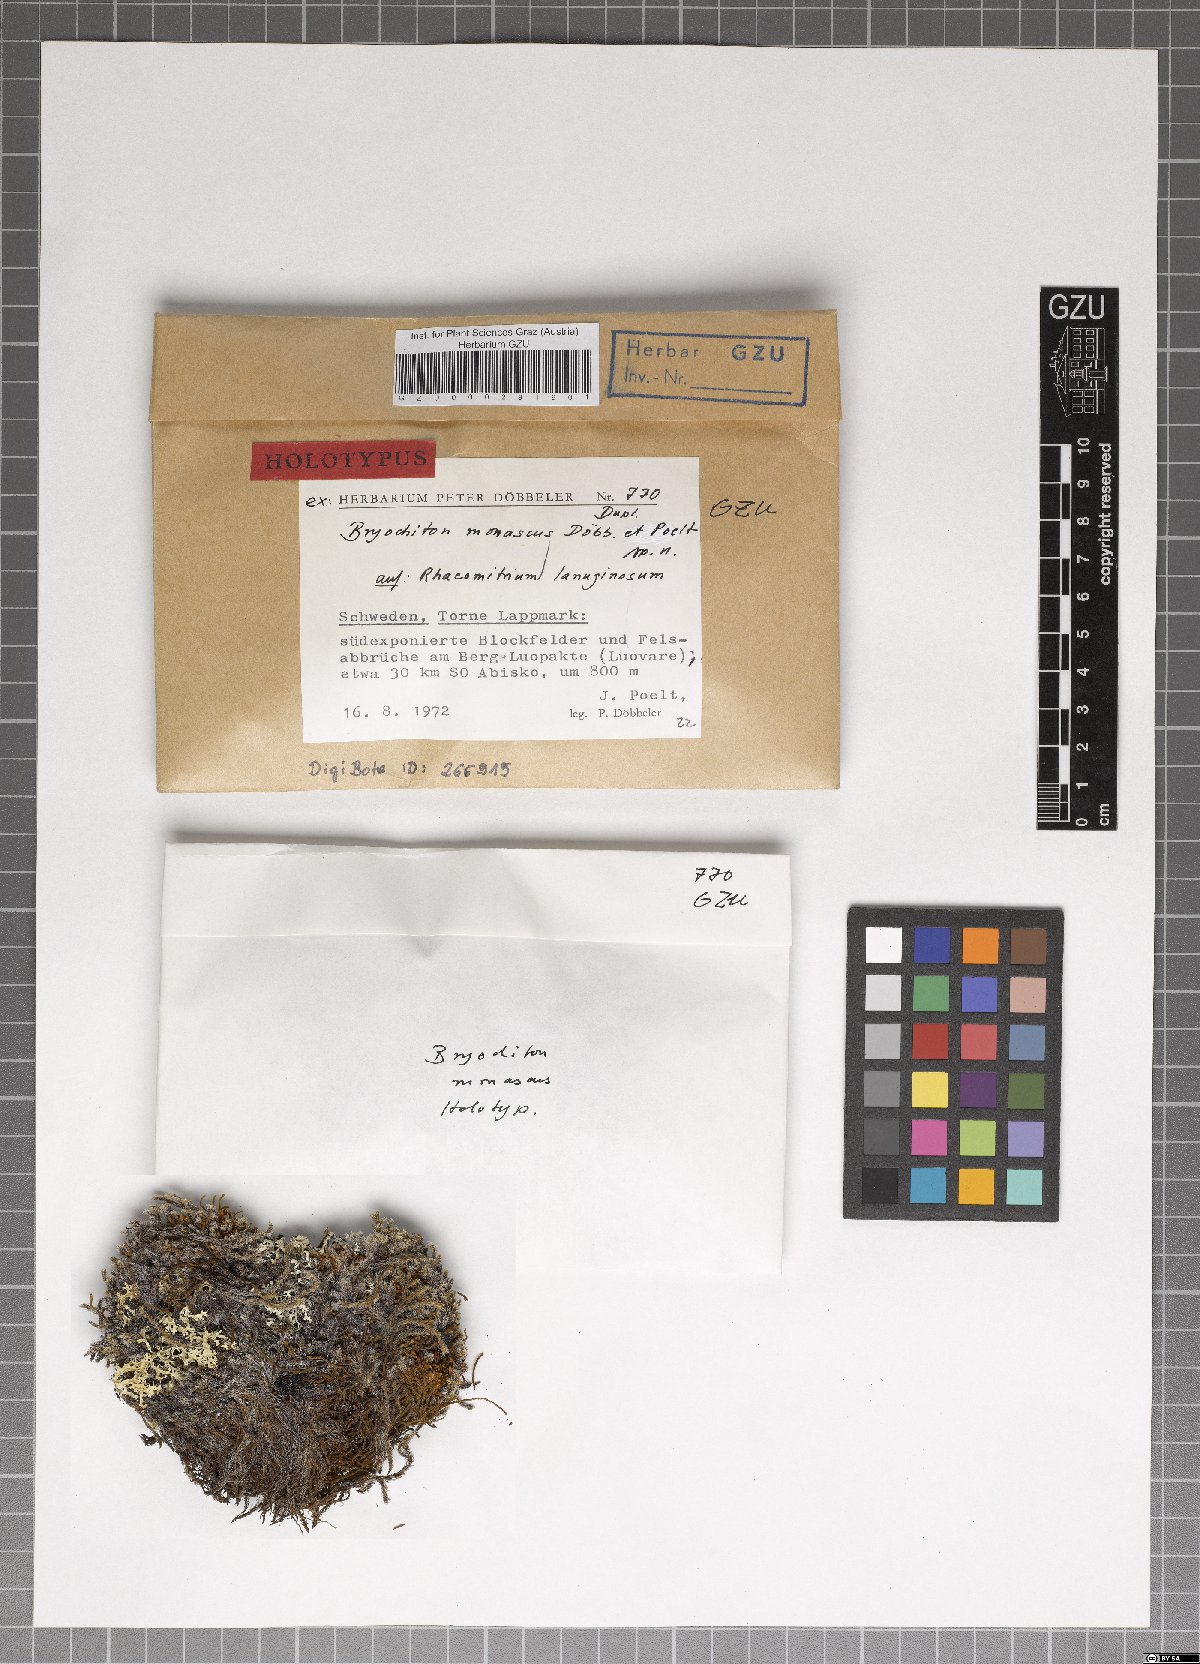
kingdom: Fungi
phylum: Ascomycota
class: Dothideomycetes
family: Pseudoperisporiaceae
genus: Bryochiton
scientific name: Bryochiton monascus
